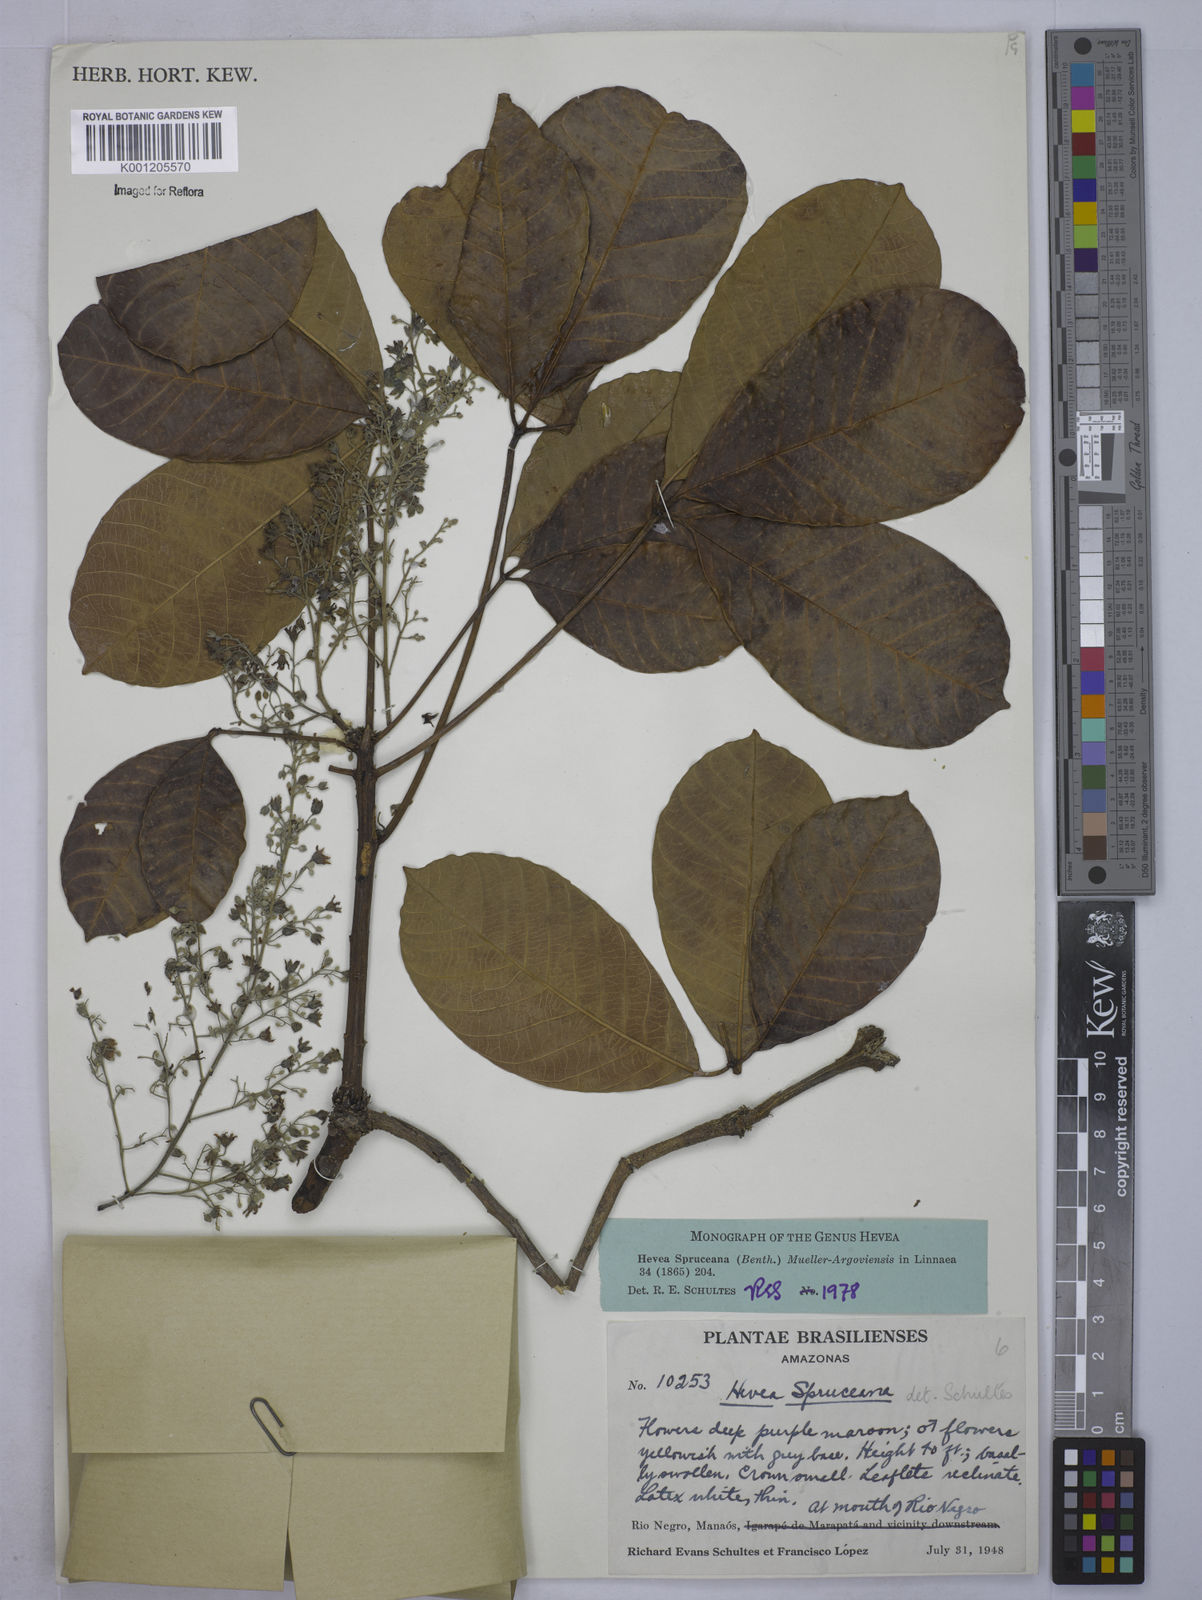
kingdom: Plantae
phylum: Tracheophyta
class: Magnoliopsida
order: Malpighiales
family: Euphorbiaceae
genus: Hevea
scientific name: Hevea
